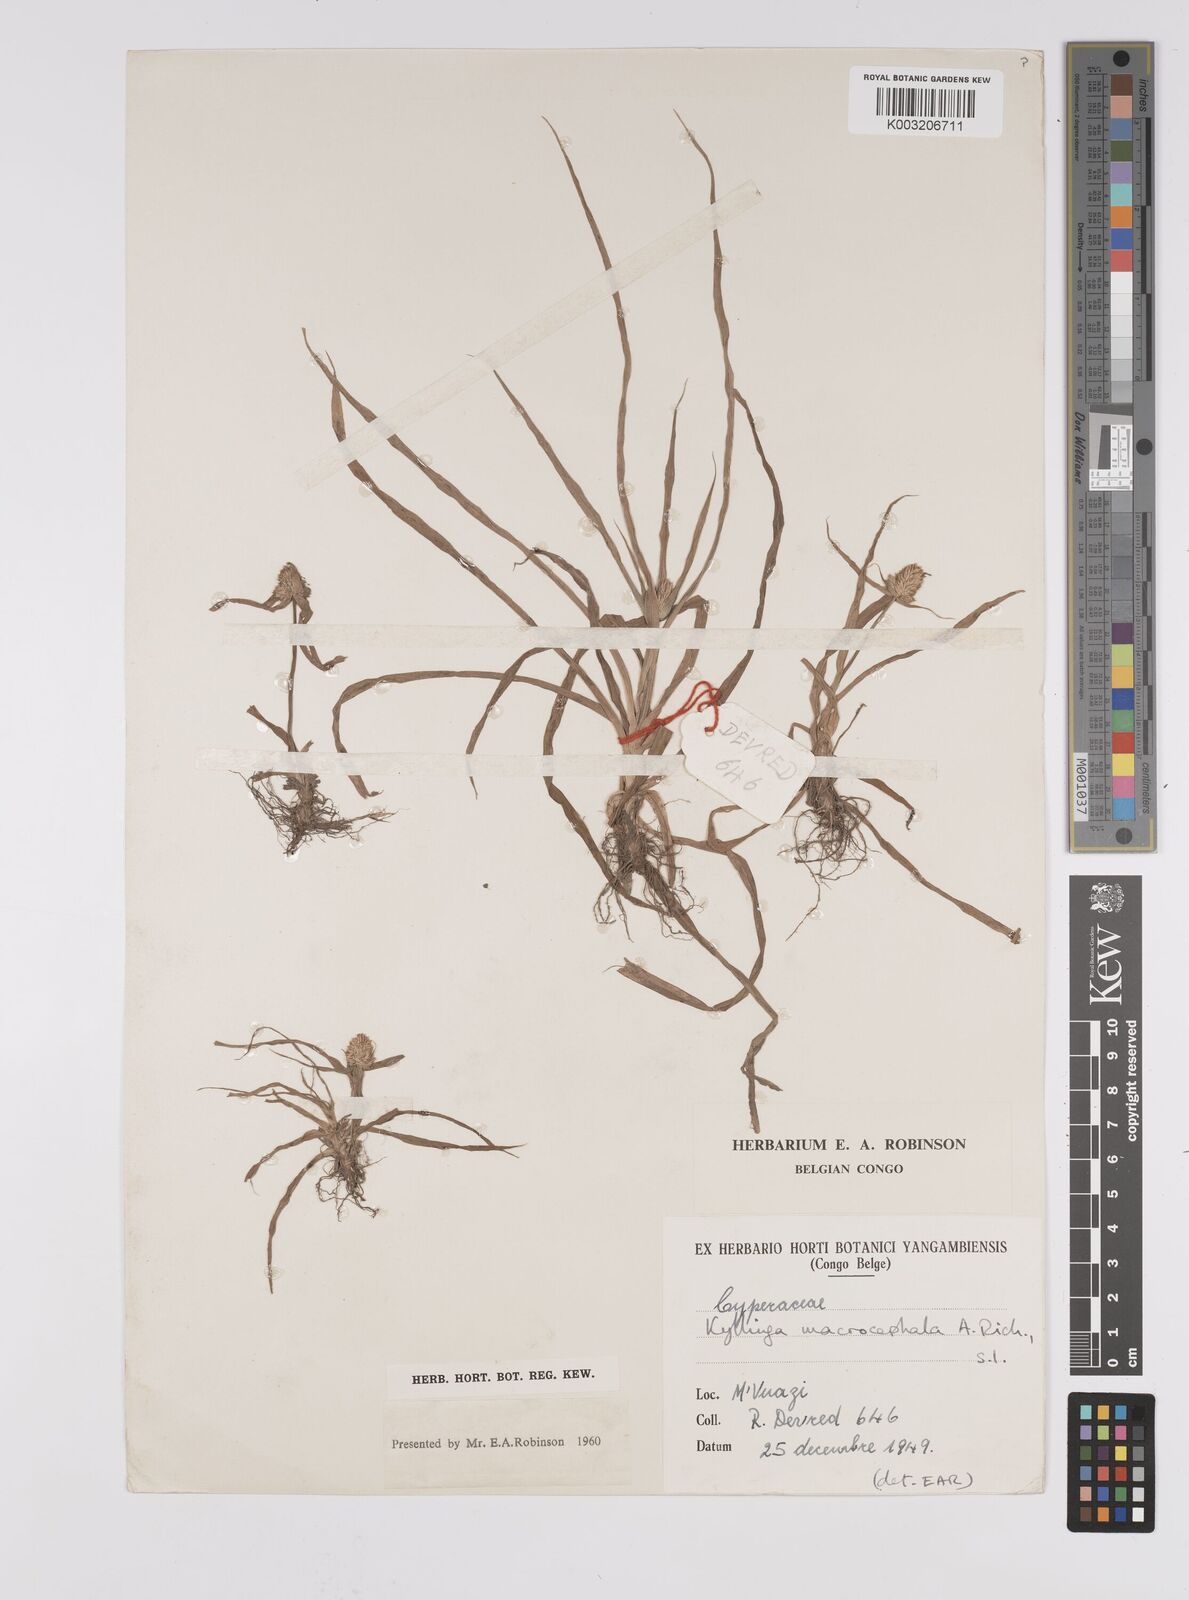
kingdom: Plantae
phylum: Tracheophyta
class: Liliopsida
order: Poales
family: Cyperaceae
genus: Cyperus
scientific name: Cyperus conglobatus
